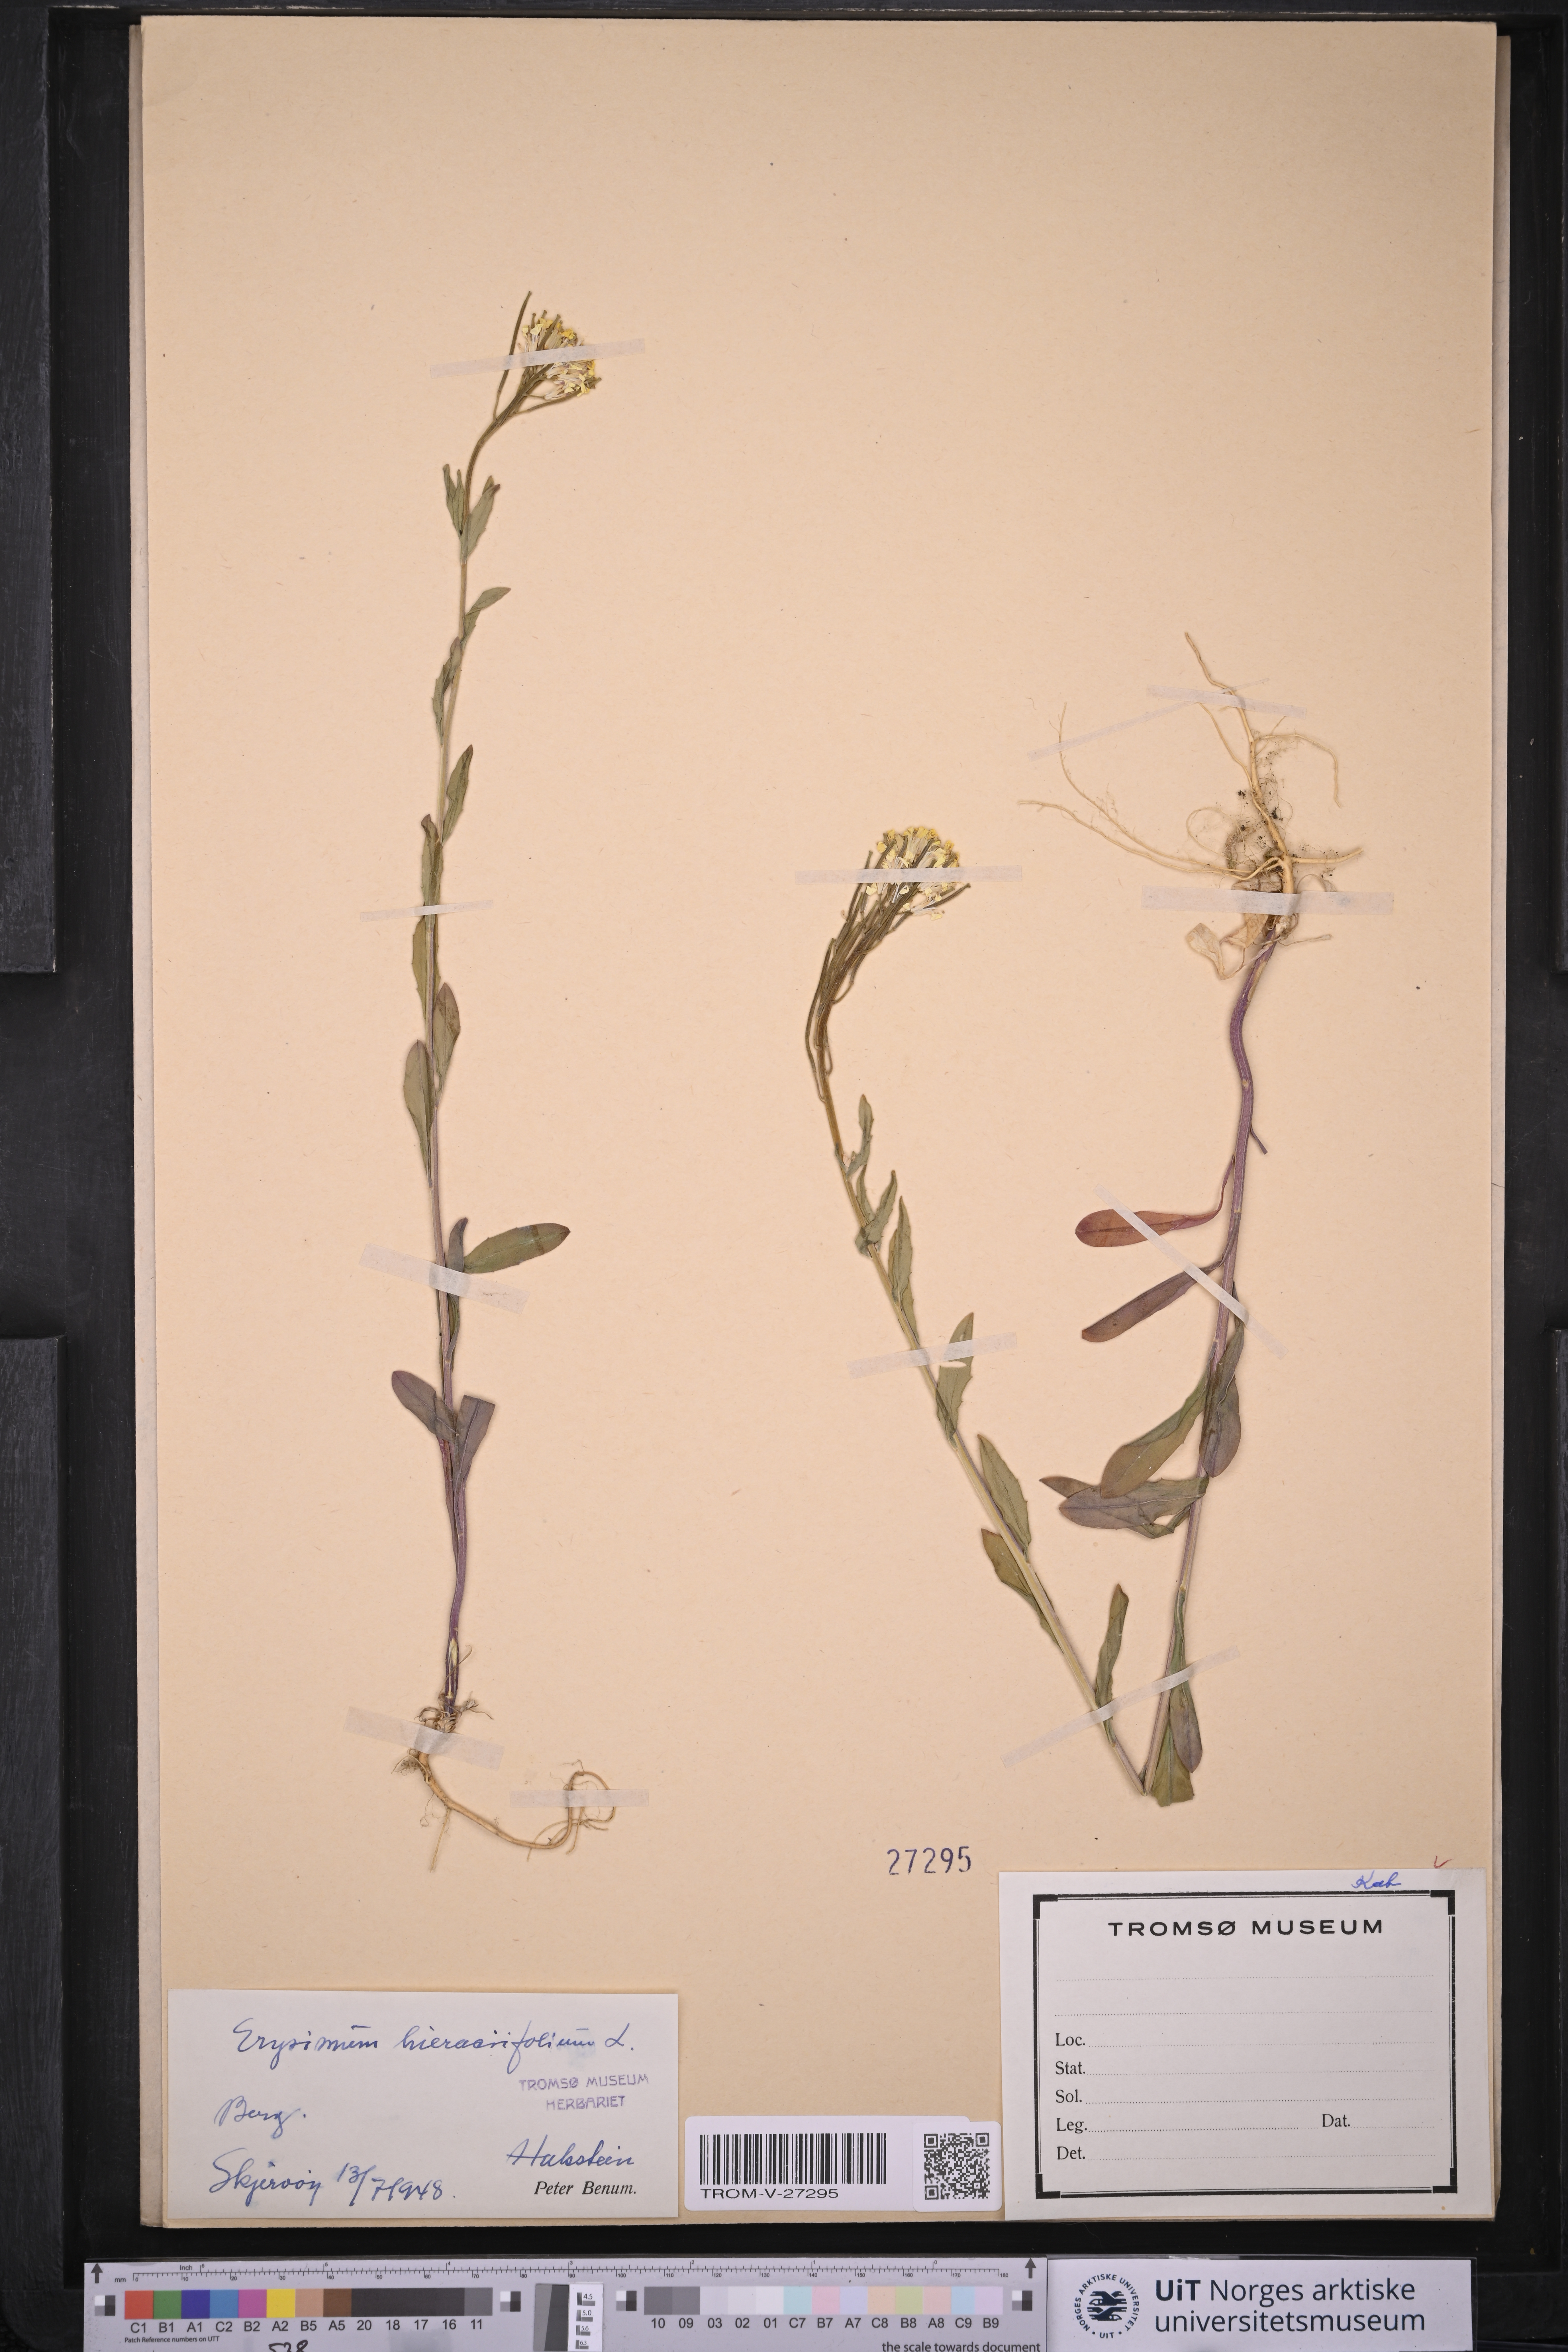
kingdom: Plantae
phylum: Tracheophyta
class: Magnoliopsida
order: Brassicales
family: Brassicaceae
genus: Erysimum
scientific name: Erysimum virgatum
